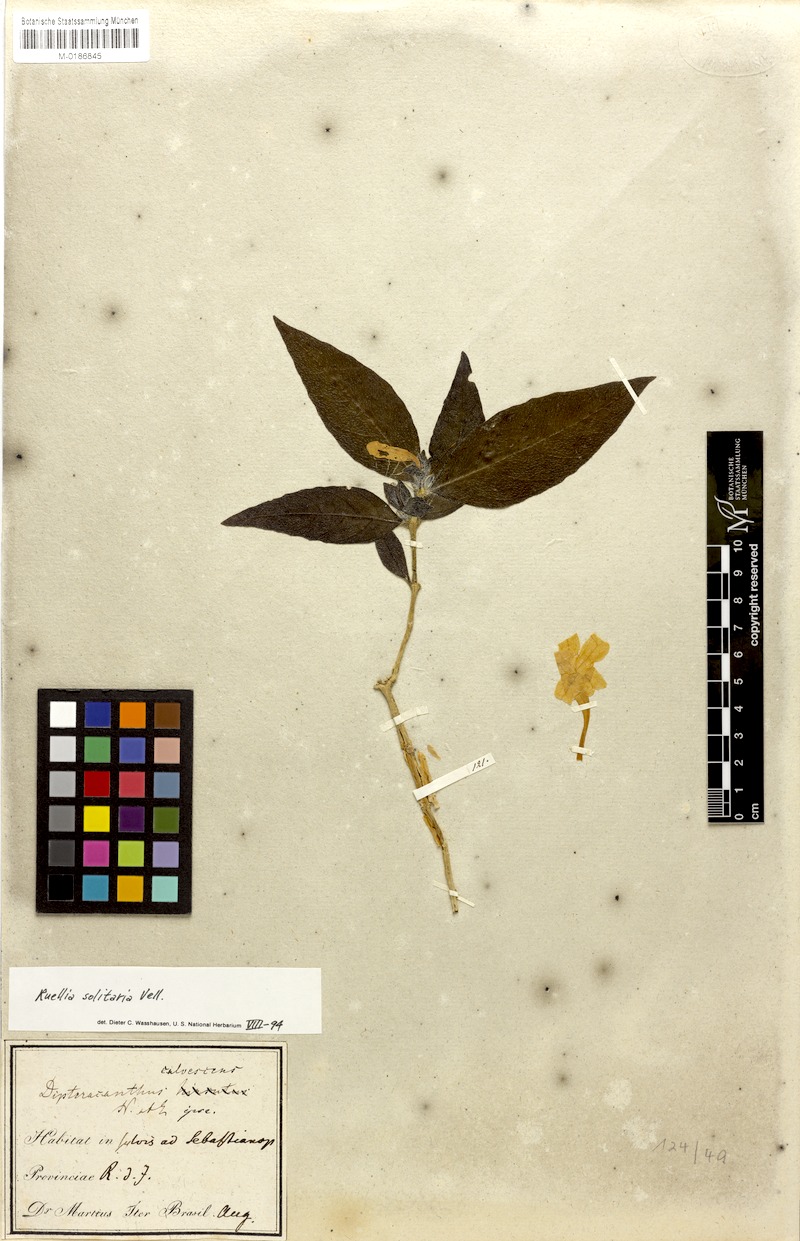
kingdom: Plantae
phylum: Tracheophyta
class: Magnoliopsida
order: Lamiales
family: Acanthaceae
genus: Ruellia
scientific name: Ruellia solitaria
